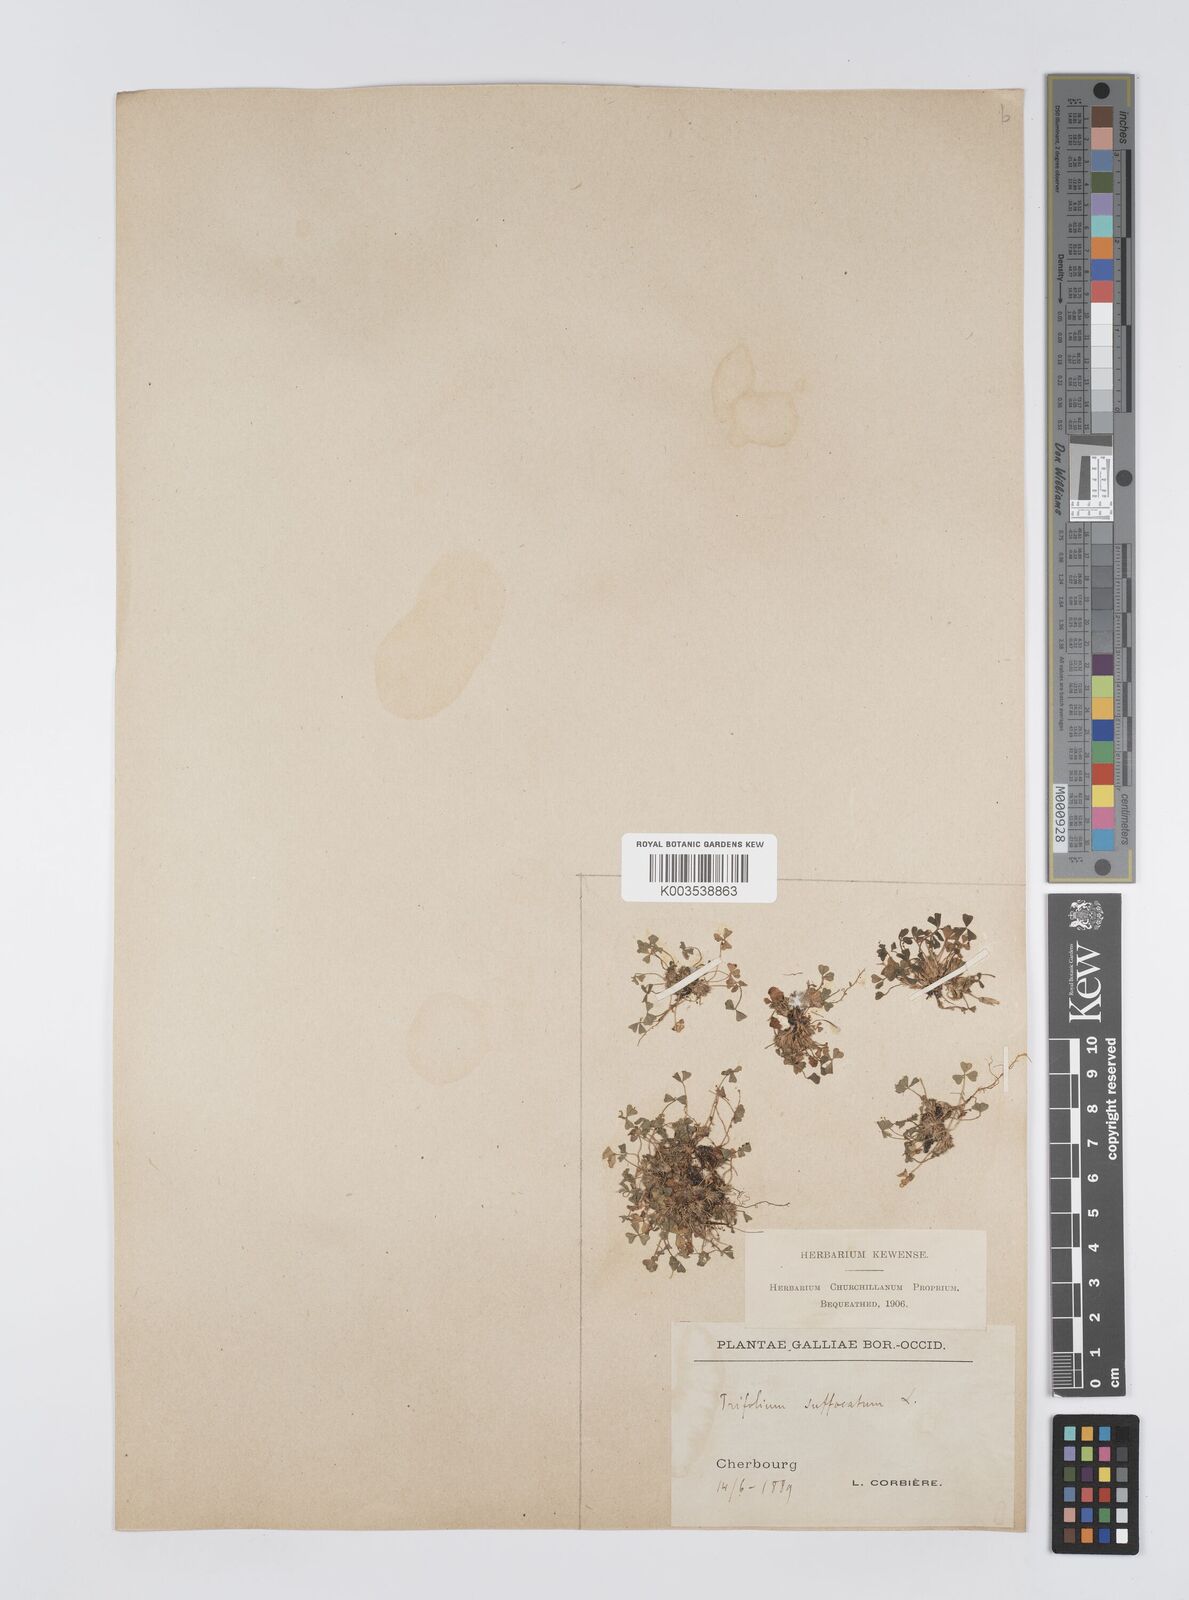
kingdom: Plantae
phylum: Tracheophyta
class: Magnoliopsida
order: Fabales
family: Fabaceae
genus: Trifolium
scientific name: Trifolium suffocatum
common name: Suffocated clover
